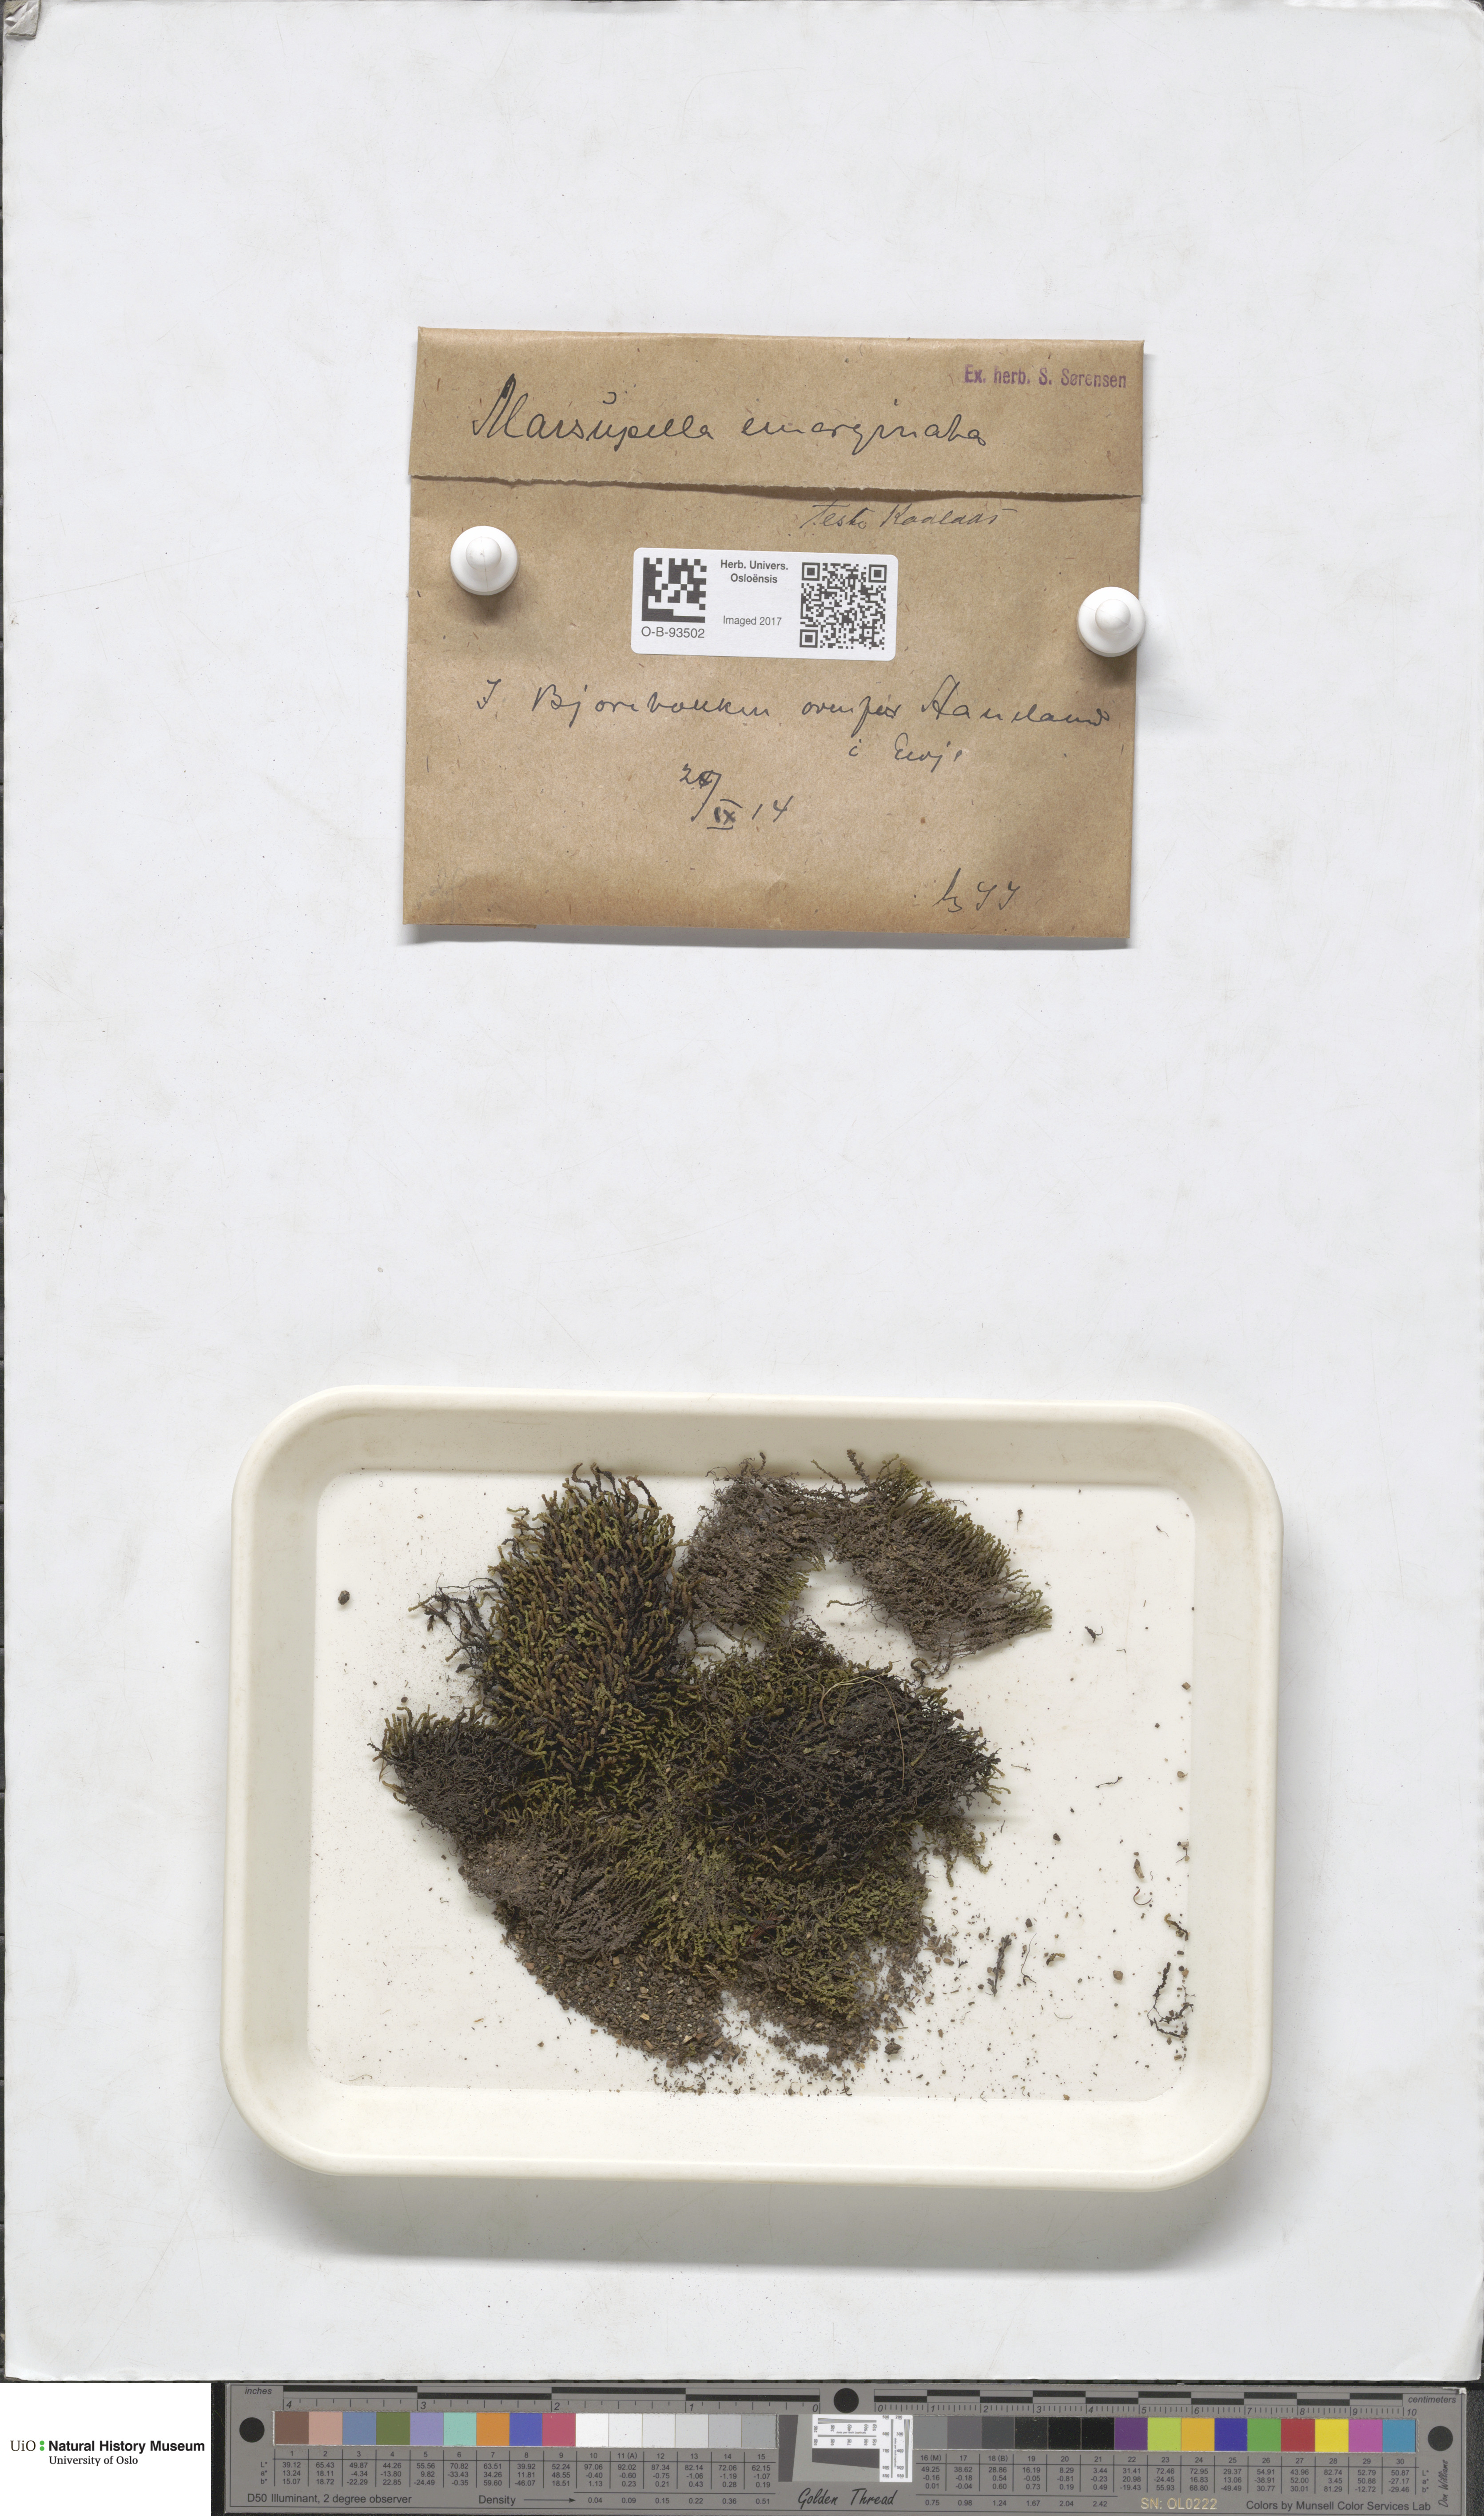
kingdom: Plantae
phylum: Marchantiophyta
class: Jungermanniopsida
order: Jungermanniales
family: Gymnomitriaceae
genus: Marsupella
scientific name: Marsupella emarginata
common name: Notched rustwort
